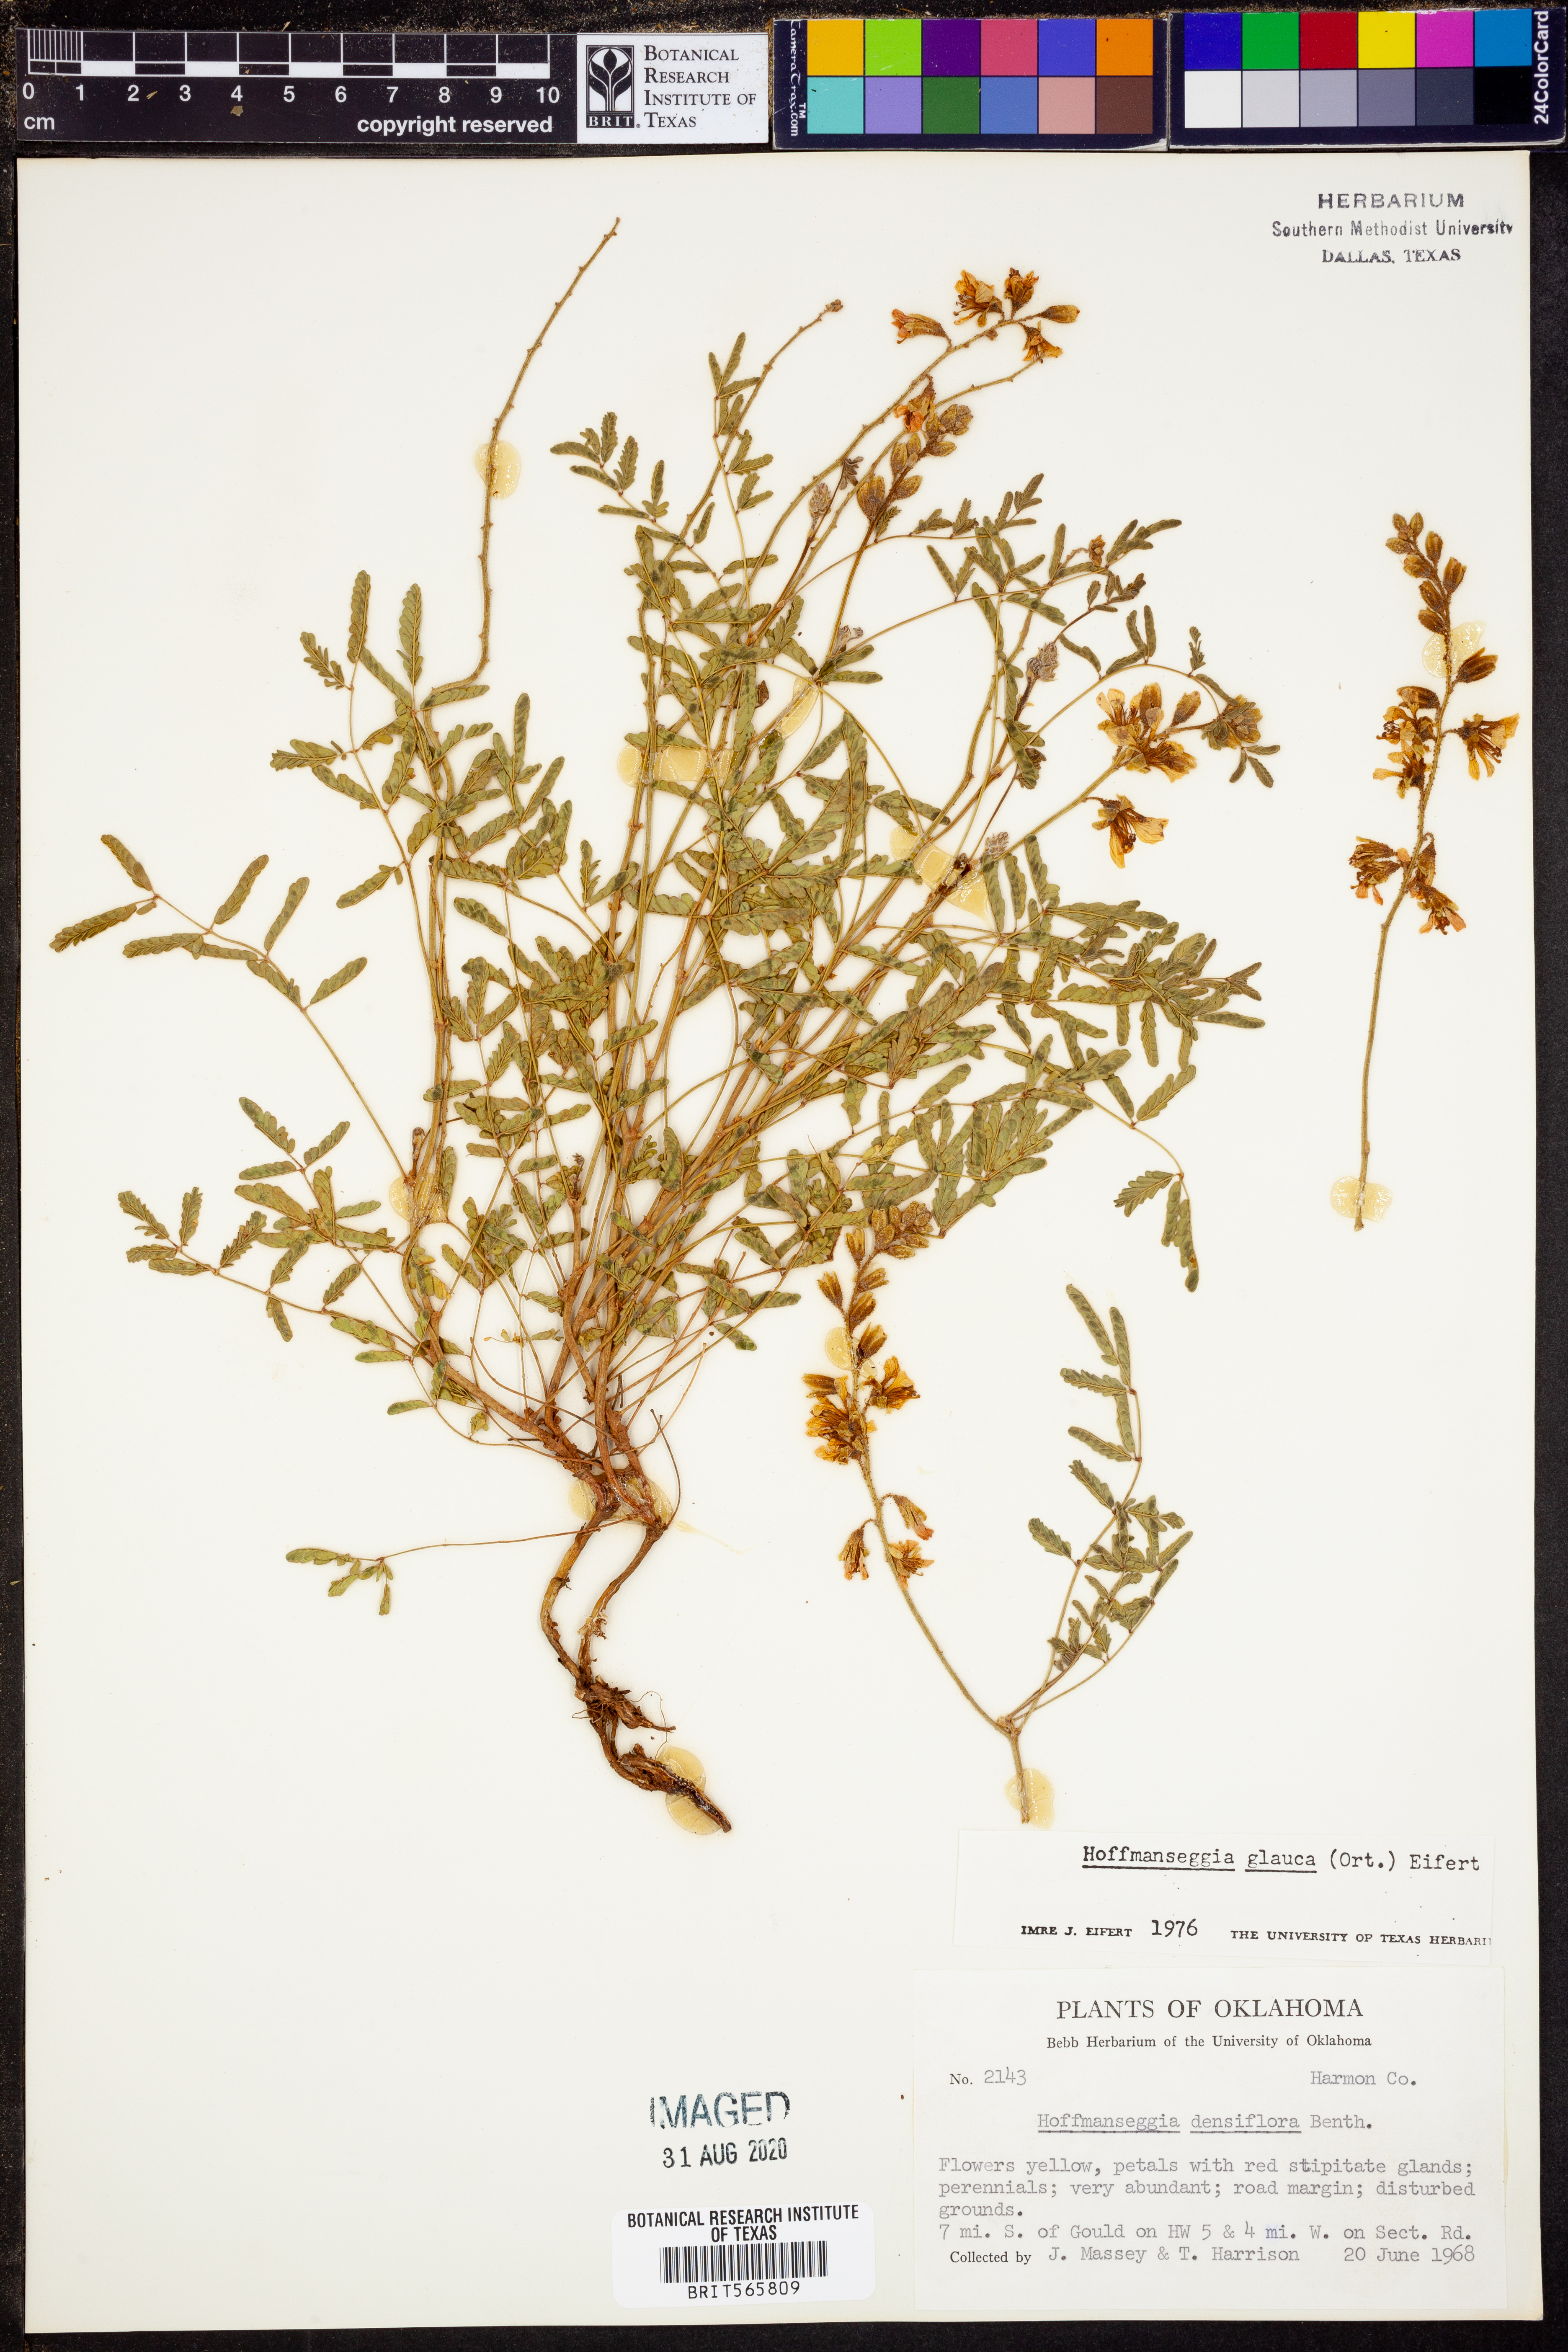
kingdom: Plantae
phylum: Tracheophyta
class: Magnoliopsida
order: Fabales
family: Fabaceae
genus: Hoffmannseggia
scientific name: Hoffmannseggia glauca
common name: Pignut
